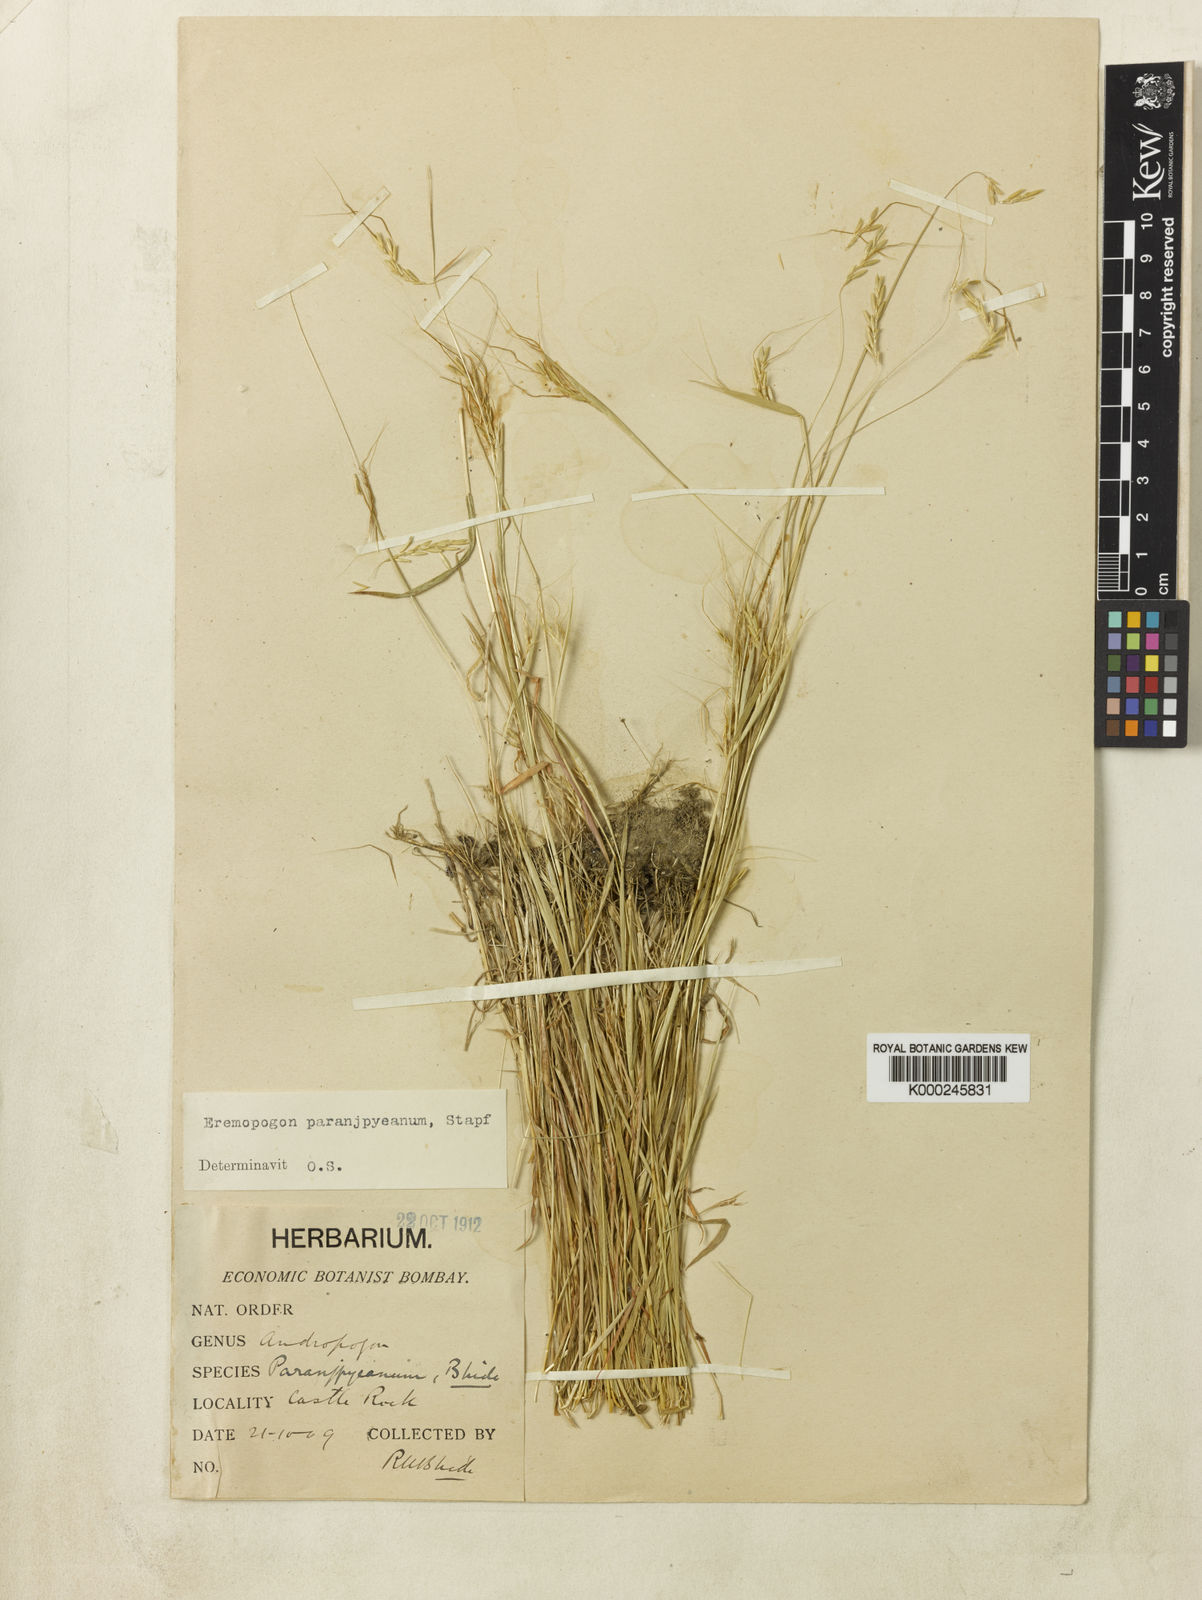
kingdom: Plantae
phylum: Tracheophyta
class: Liliopsida
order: Poales
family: Poaceae
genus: Dichanthium
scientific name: Dichanthium paranjpyeanum
